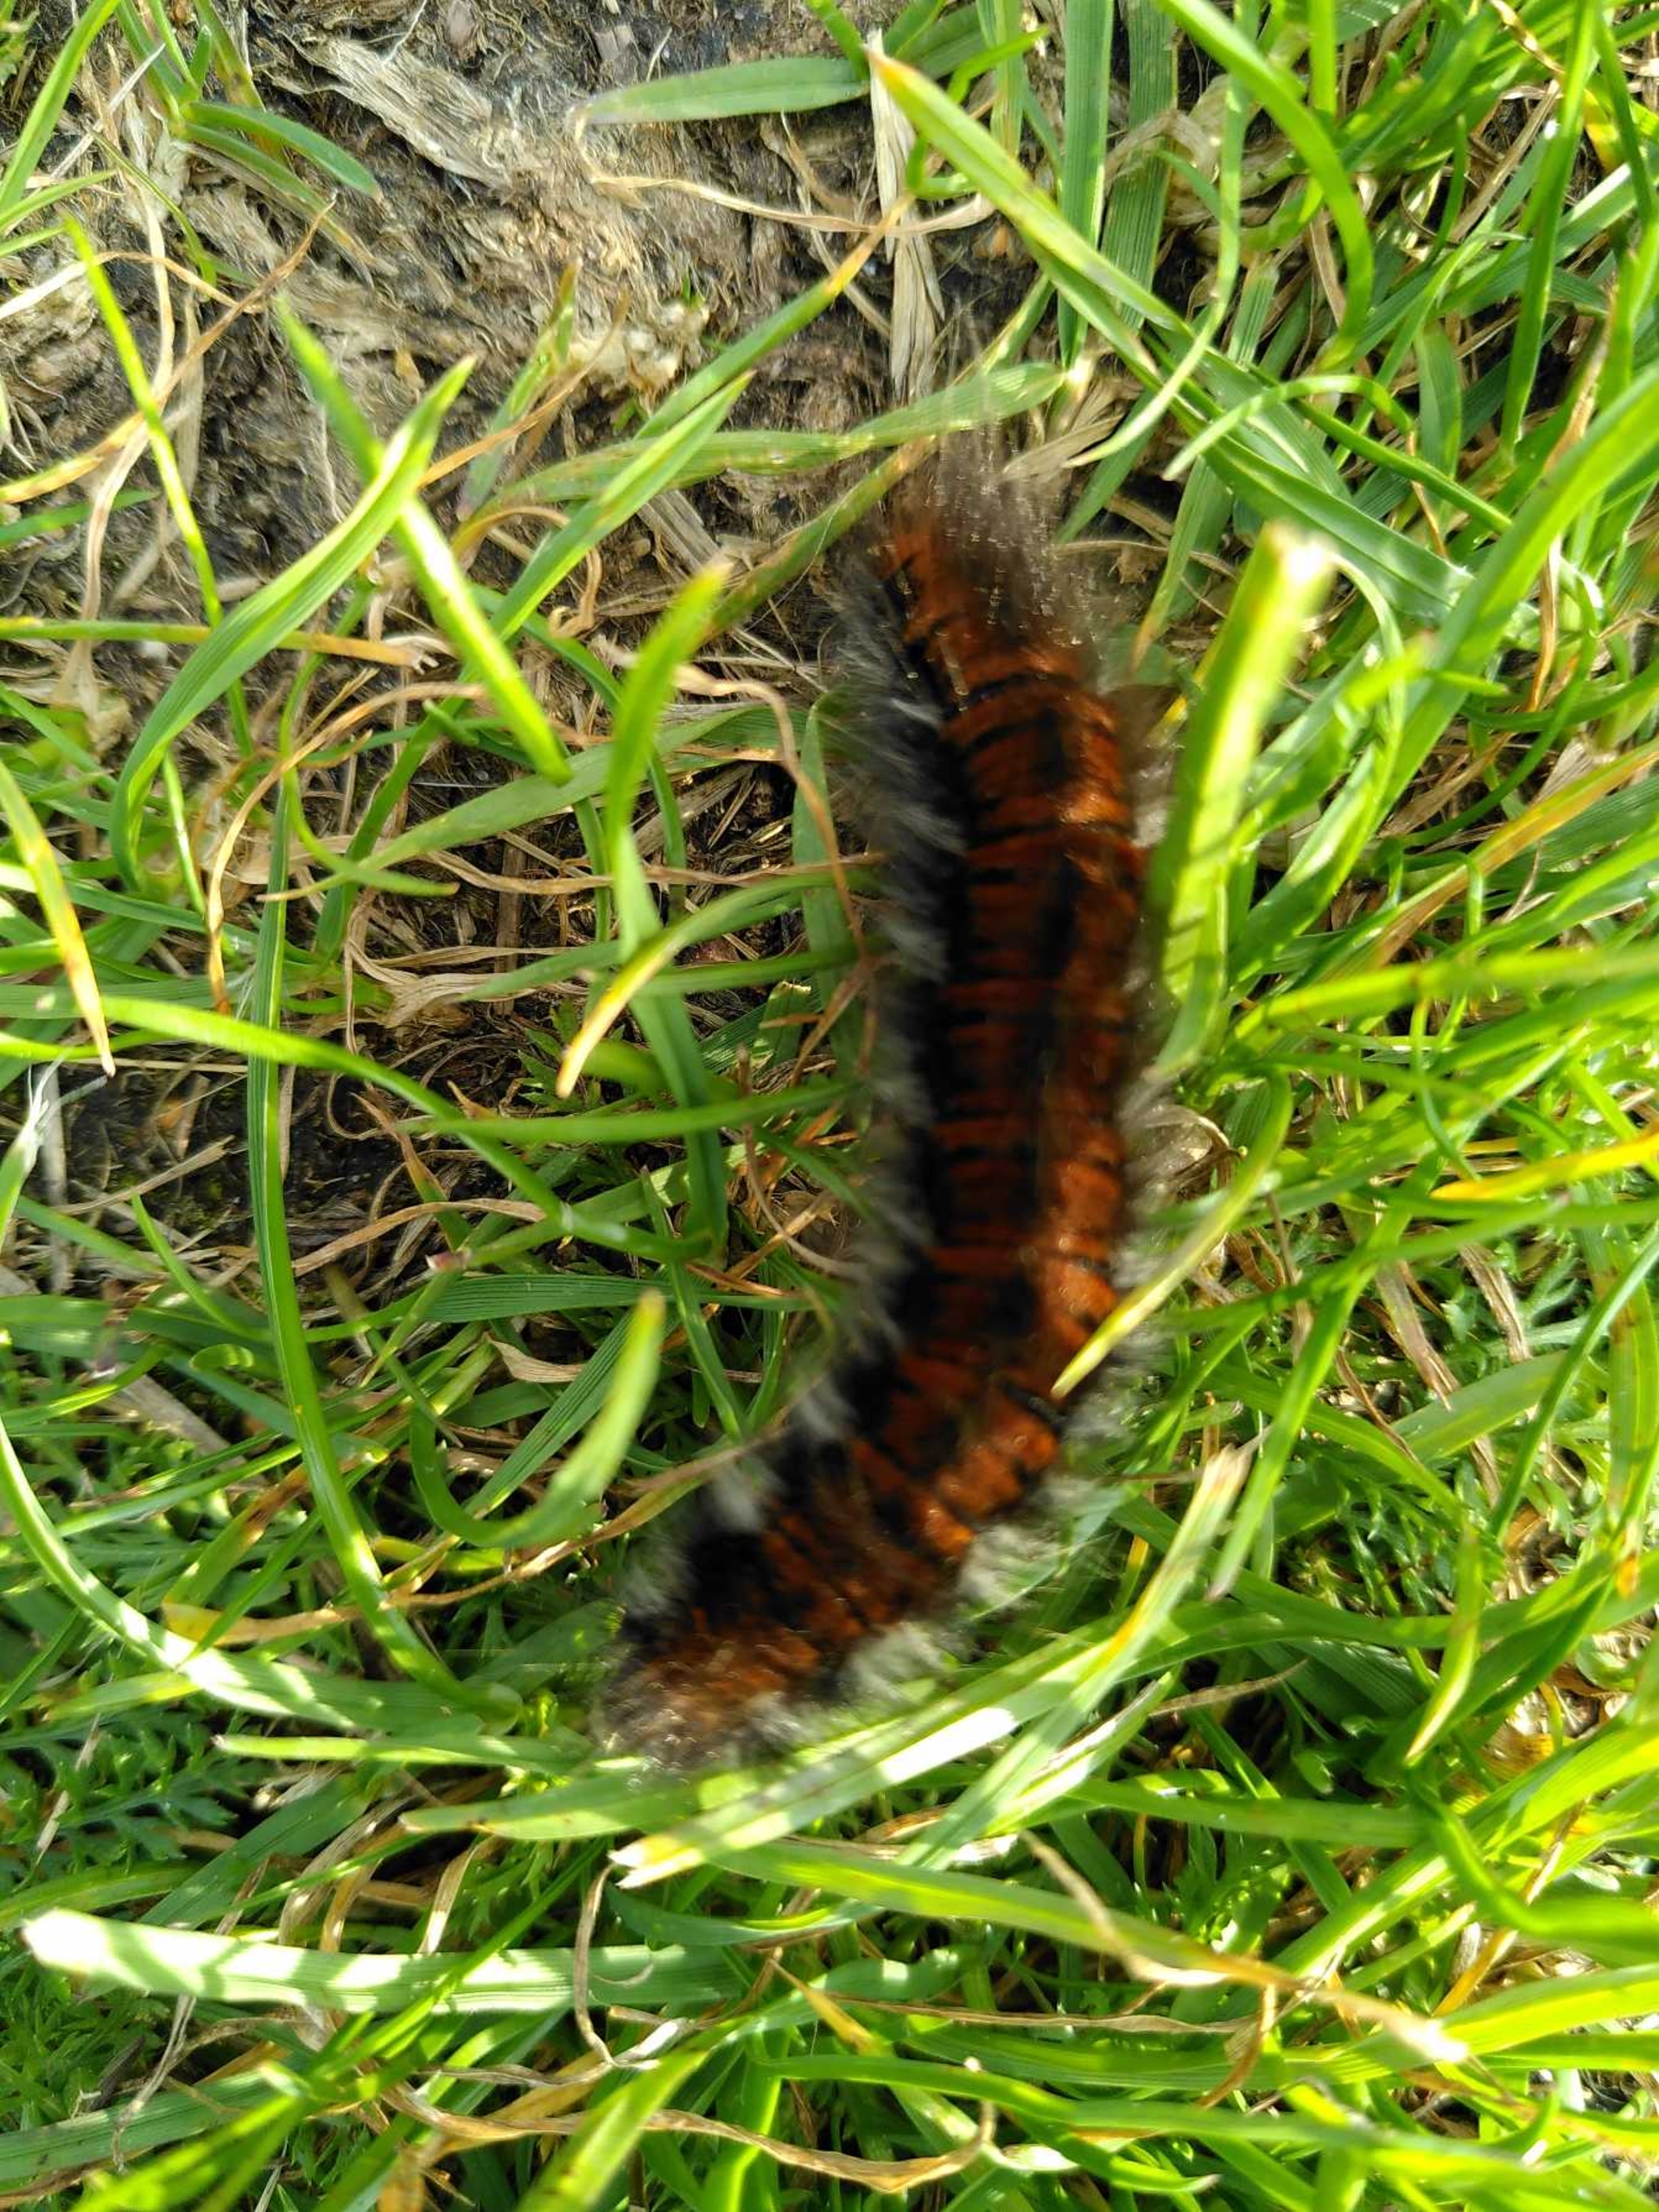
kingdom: Animalia
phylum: Arthropoda
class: Insecta
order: Lepidoptera
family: Lasiocampidae
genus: Macrothylacia
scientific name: Macrothylacia rubi
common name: Brombærspinder
